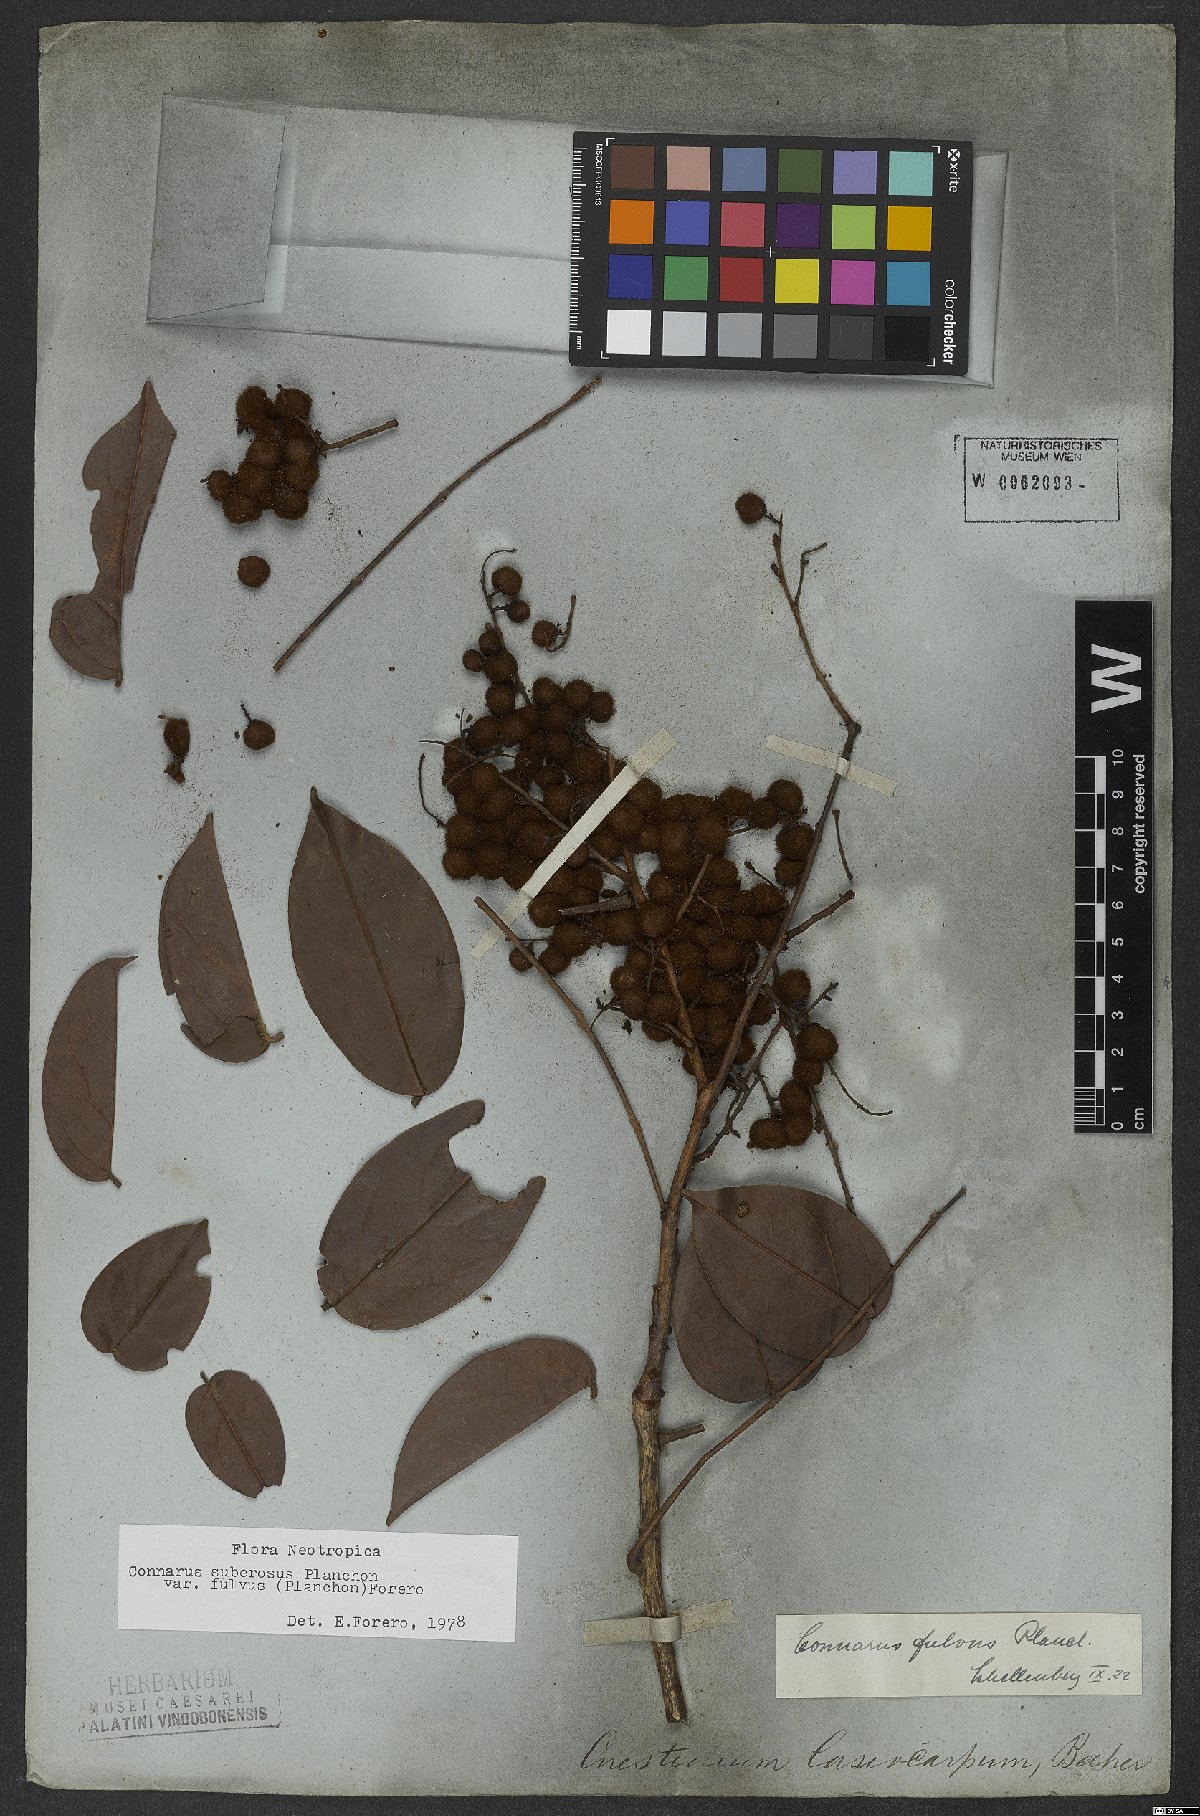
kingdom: Plantae
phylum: Tracheophyta
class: Magnoliopsida
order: Oxalidales
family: Connaraceae
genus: Connarus
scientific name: Connarus suberosus
